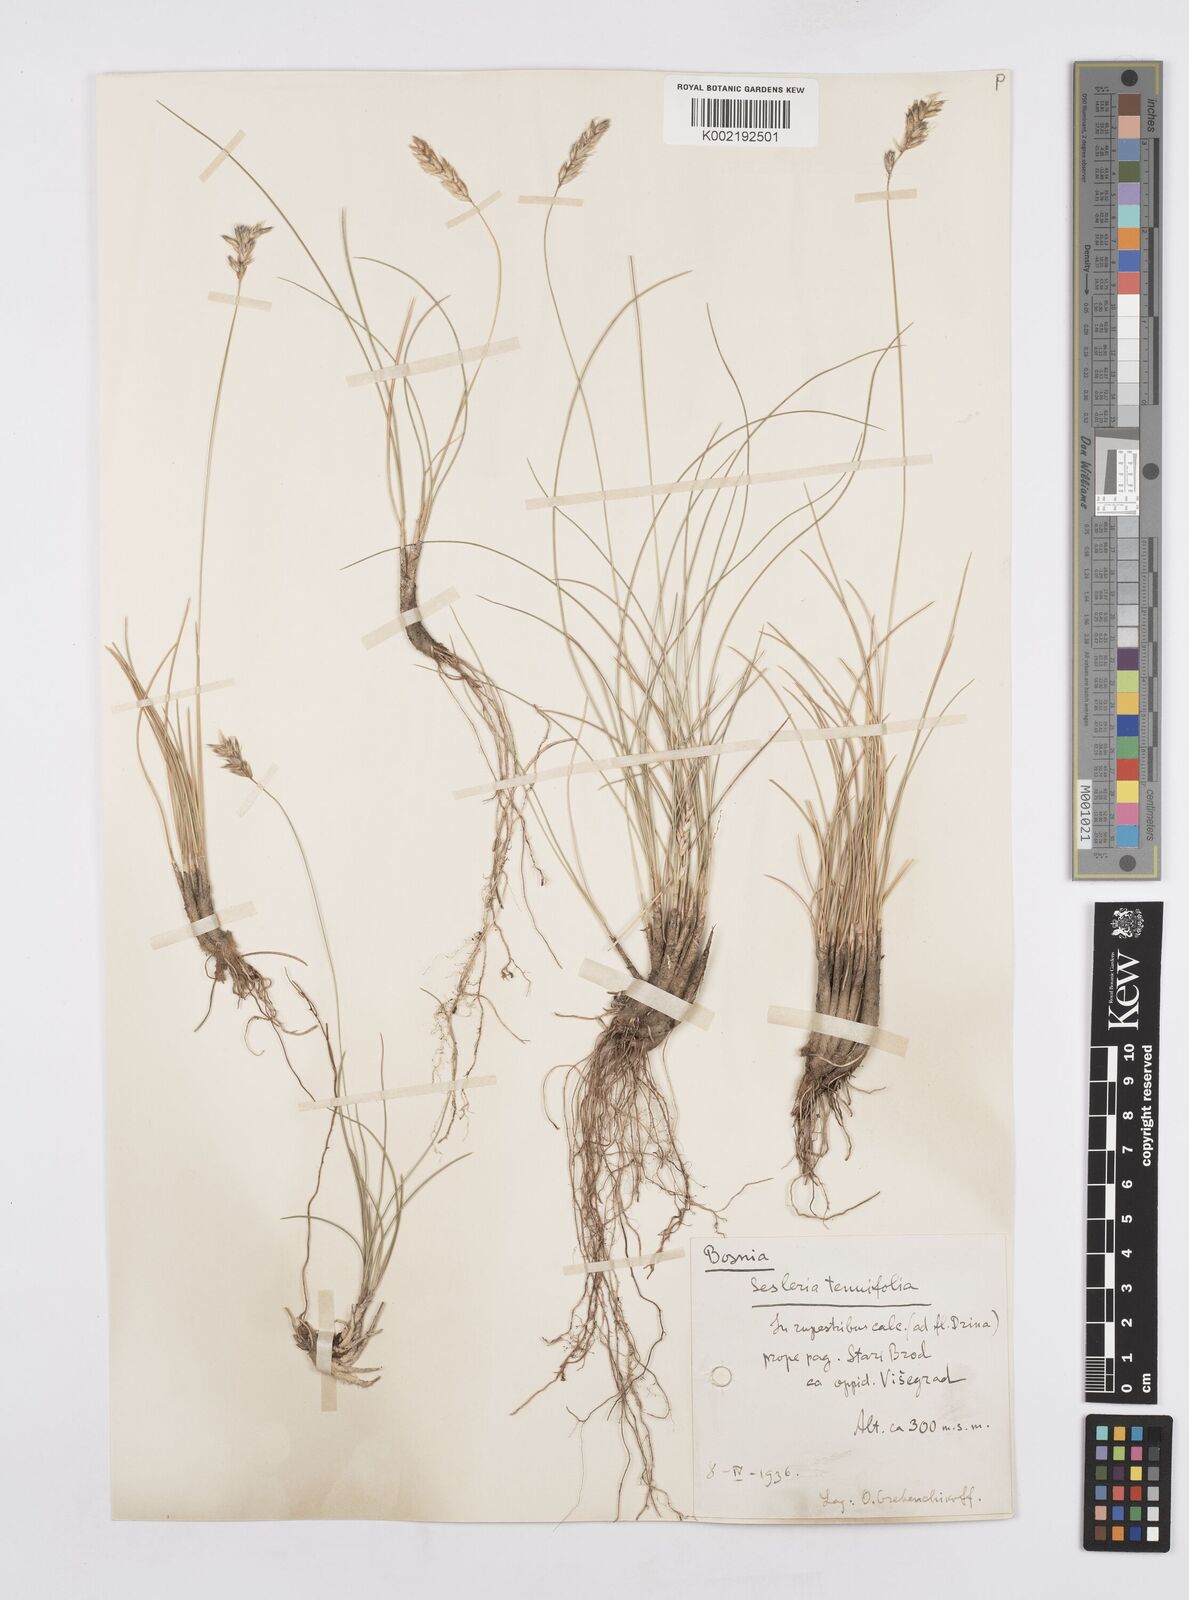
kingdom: Plantae
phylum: Tracheophyta
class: Liliopsida
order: Poales
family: Poaceae
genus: Sesleria
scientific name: Sesleria juncifolia
